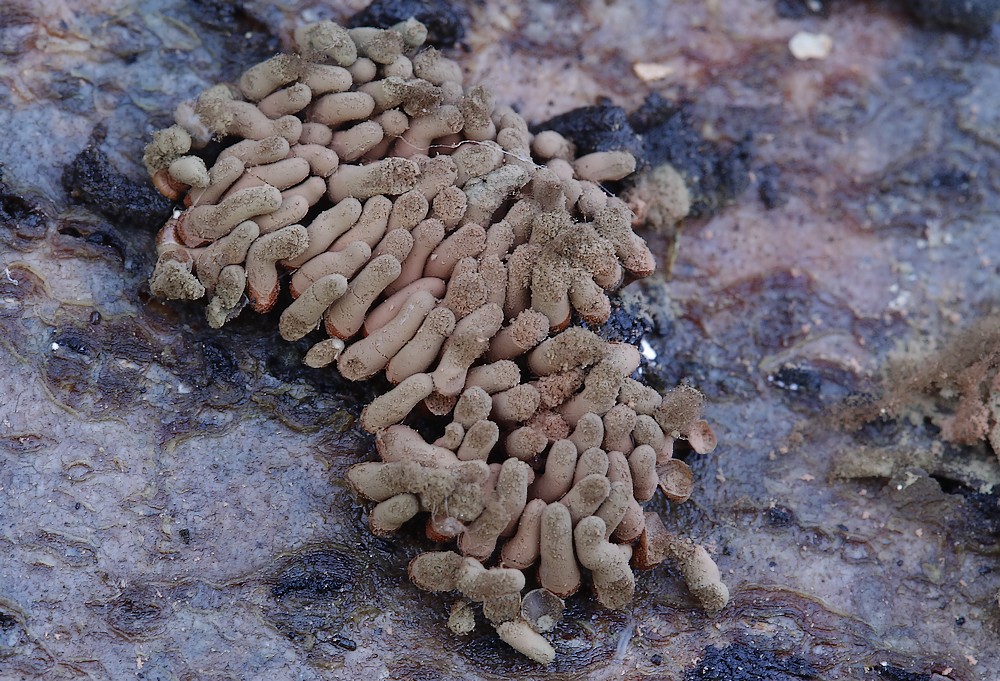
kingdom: Protozoa
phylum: Amoebozoa
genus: Arcyria
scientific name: Arcyria
